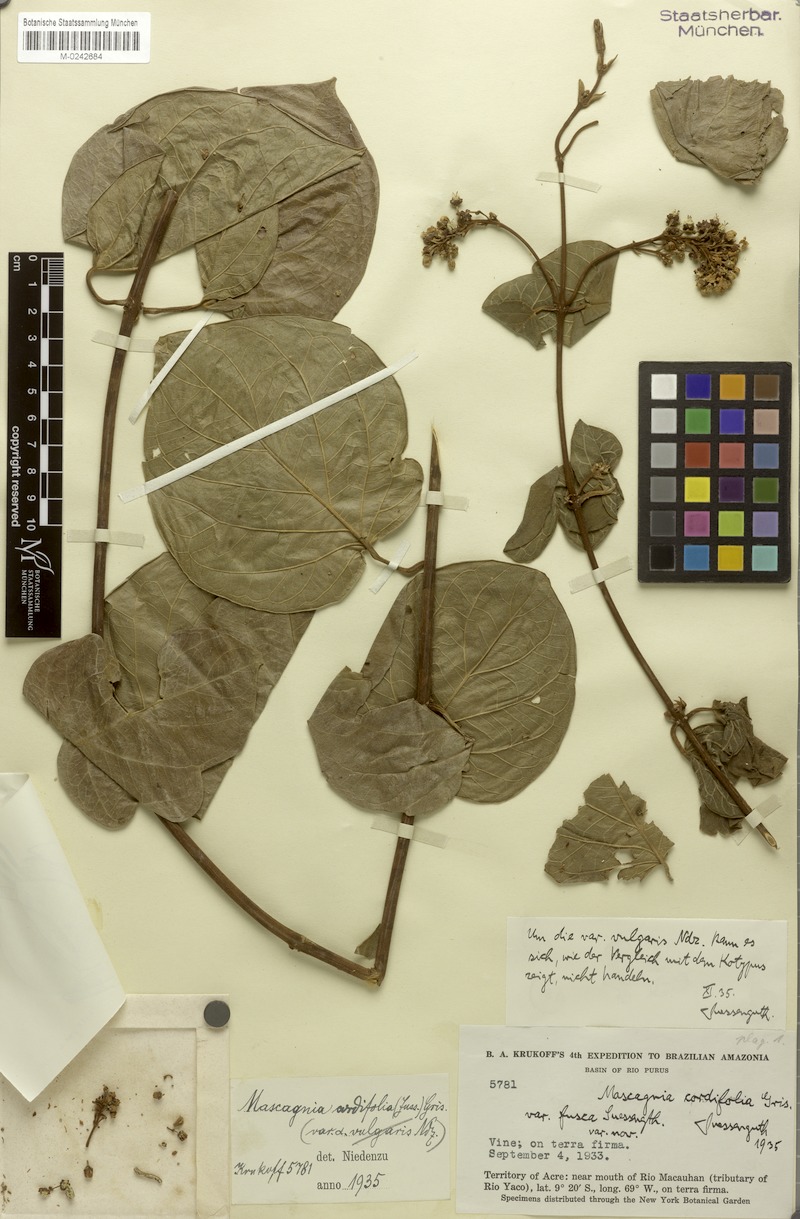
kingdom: Plantae
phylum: Tracheophyta
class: Magnoliopsida
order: Malpighiales
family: Malpighiaceae
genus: Mascagnia
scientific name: Mascagnia cordifolia
